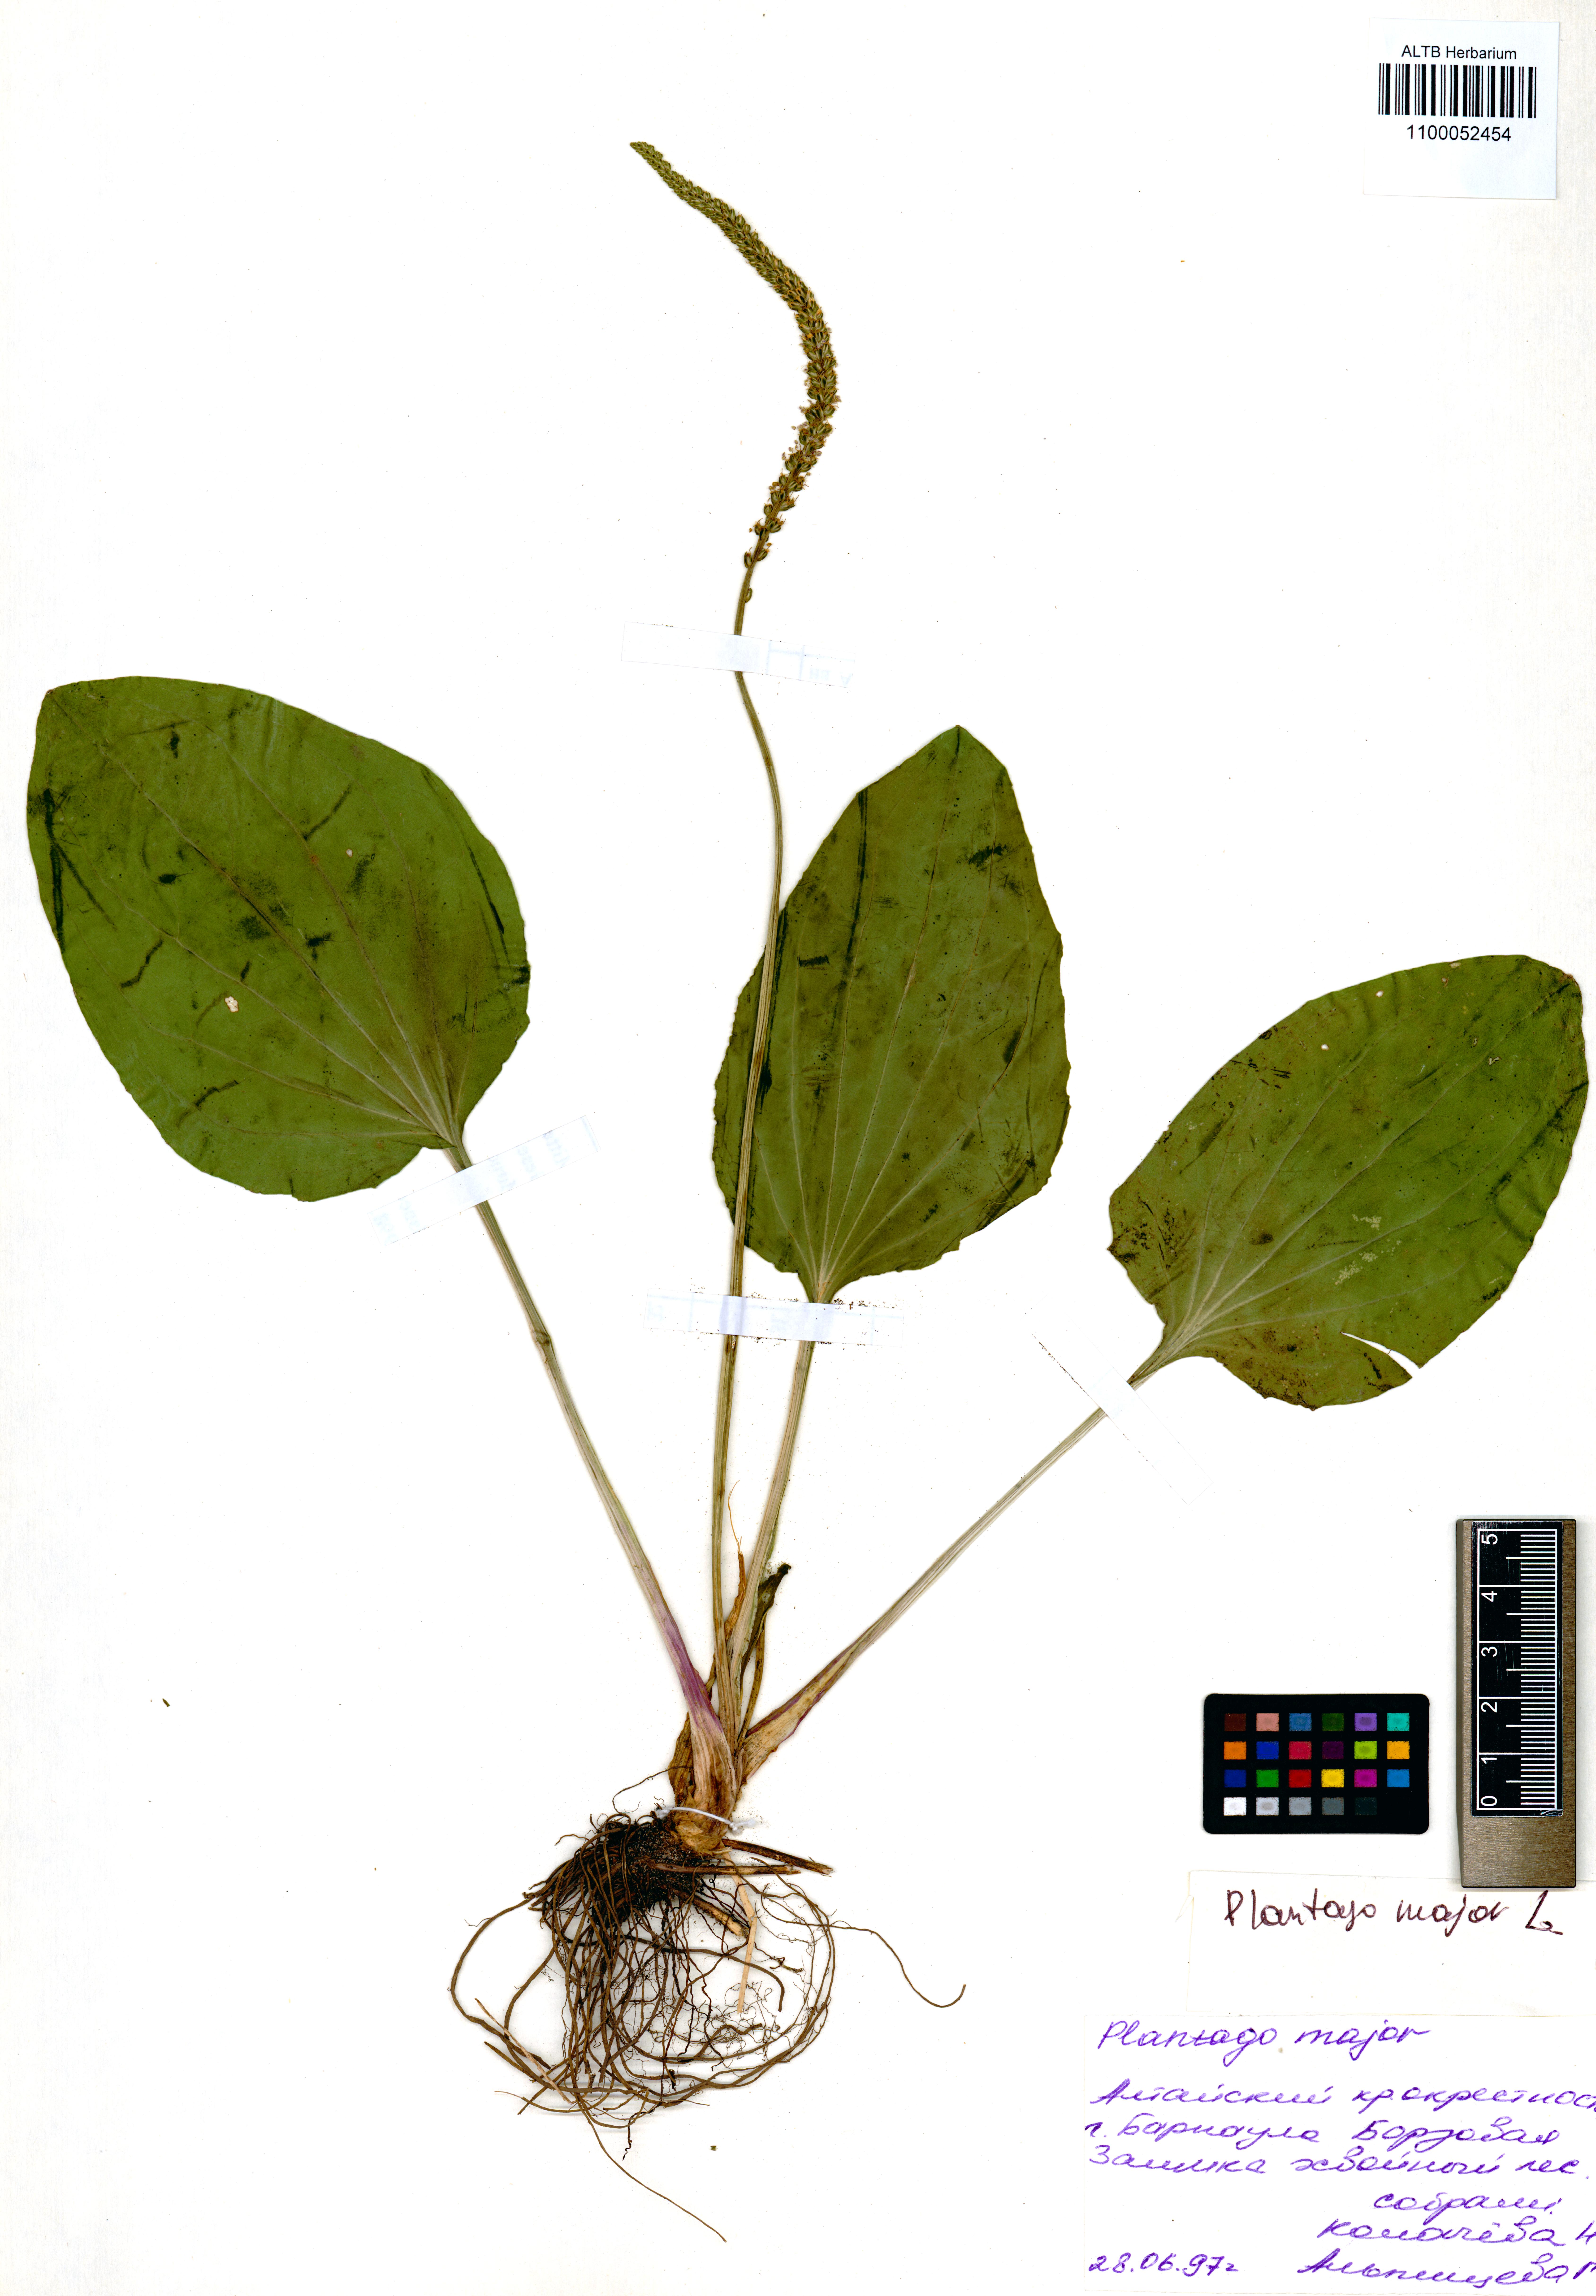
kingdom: Plantae
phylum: Tracheophyta
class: Magnoliopsida
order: Lamiales
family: Plantaginaceae
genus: Plantago
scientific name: Plantago major
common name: Common plantain
